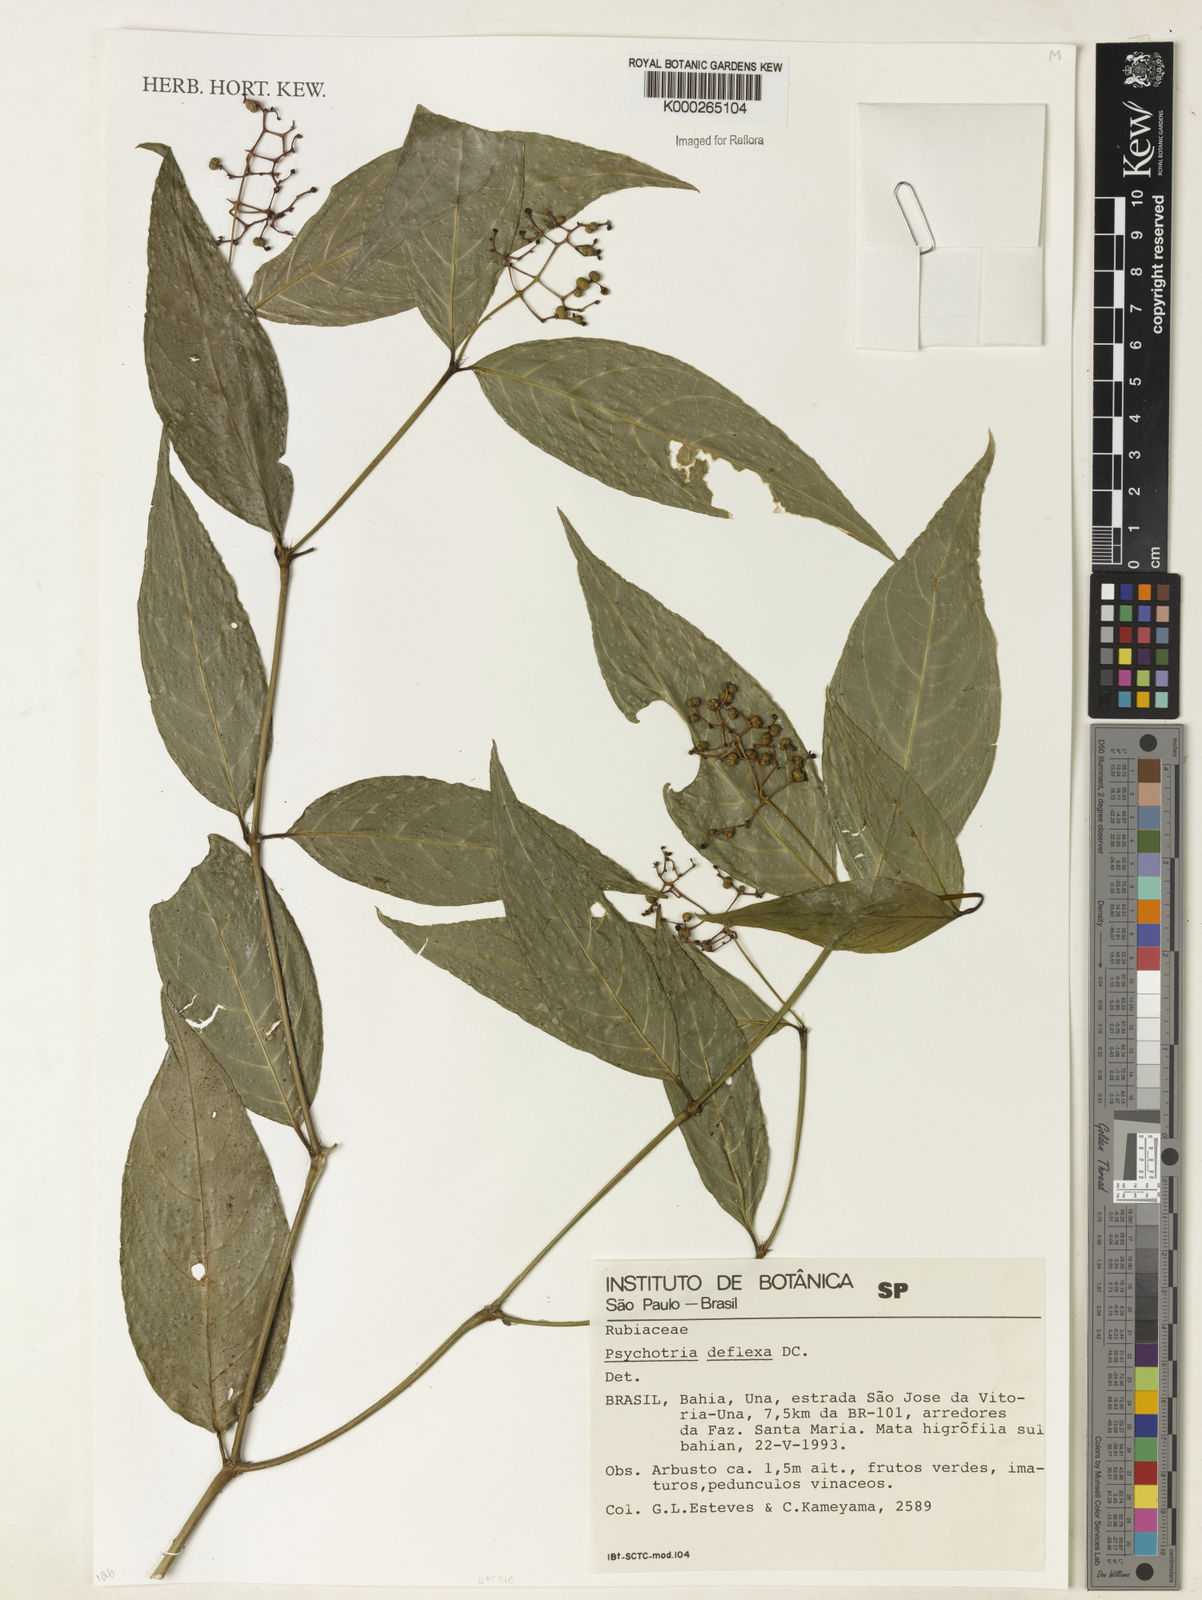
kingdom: Plantae
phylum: Tracheophyta
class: Magnoliopsida
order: Gentianales
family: Rubiaceae
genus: Palicourea
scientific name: Palicourea deflexa
